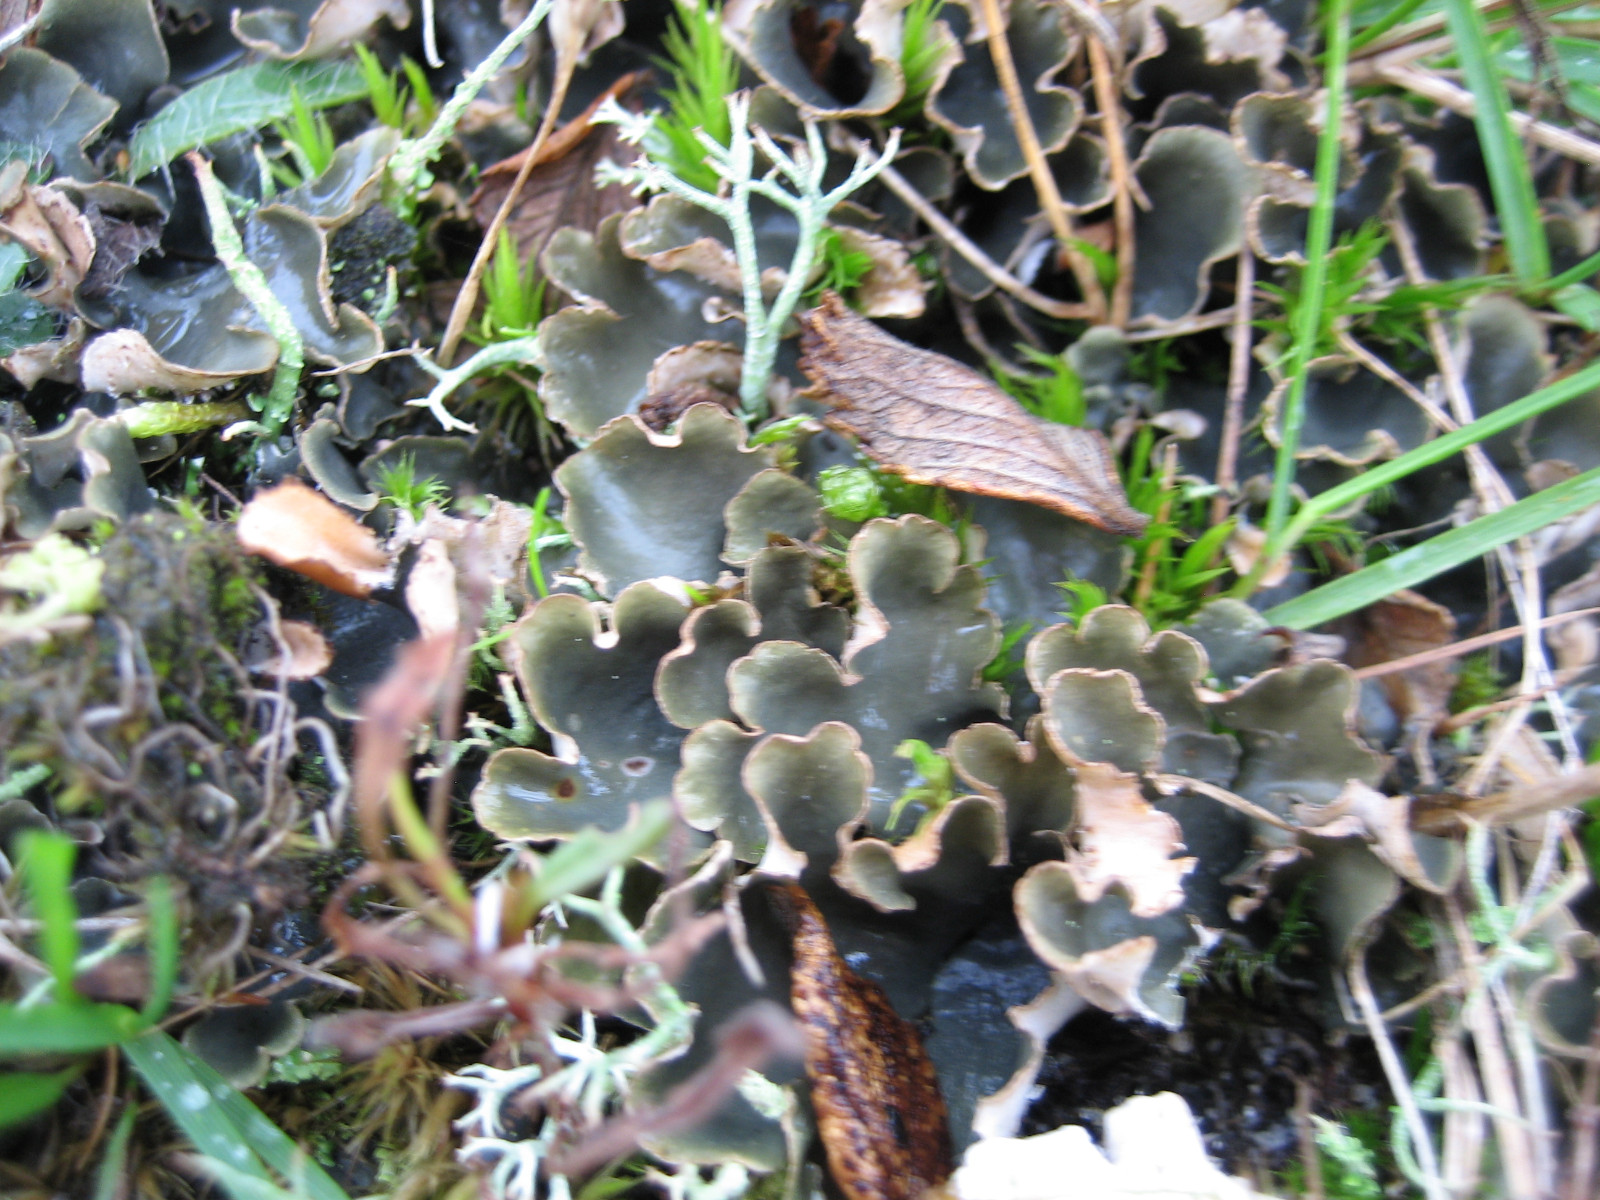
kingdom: Fungi
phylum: Ascomycota
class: Lecanoromycetes
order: Peltigerales
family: Peltigeraceae
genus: Peltigera
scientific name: Peltigera hymenina
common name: hinde-skjoldlav
